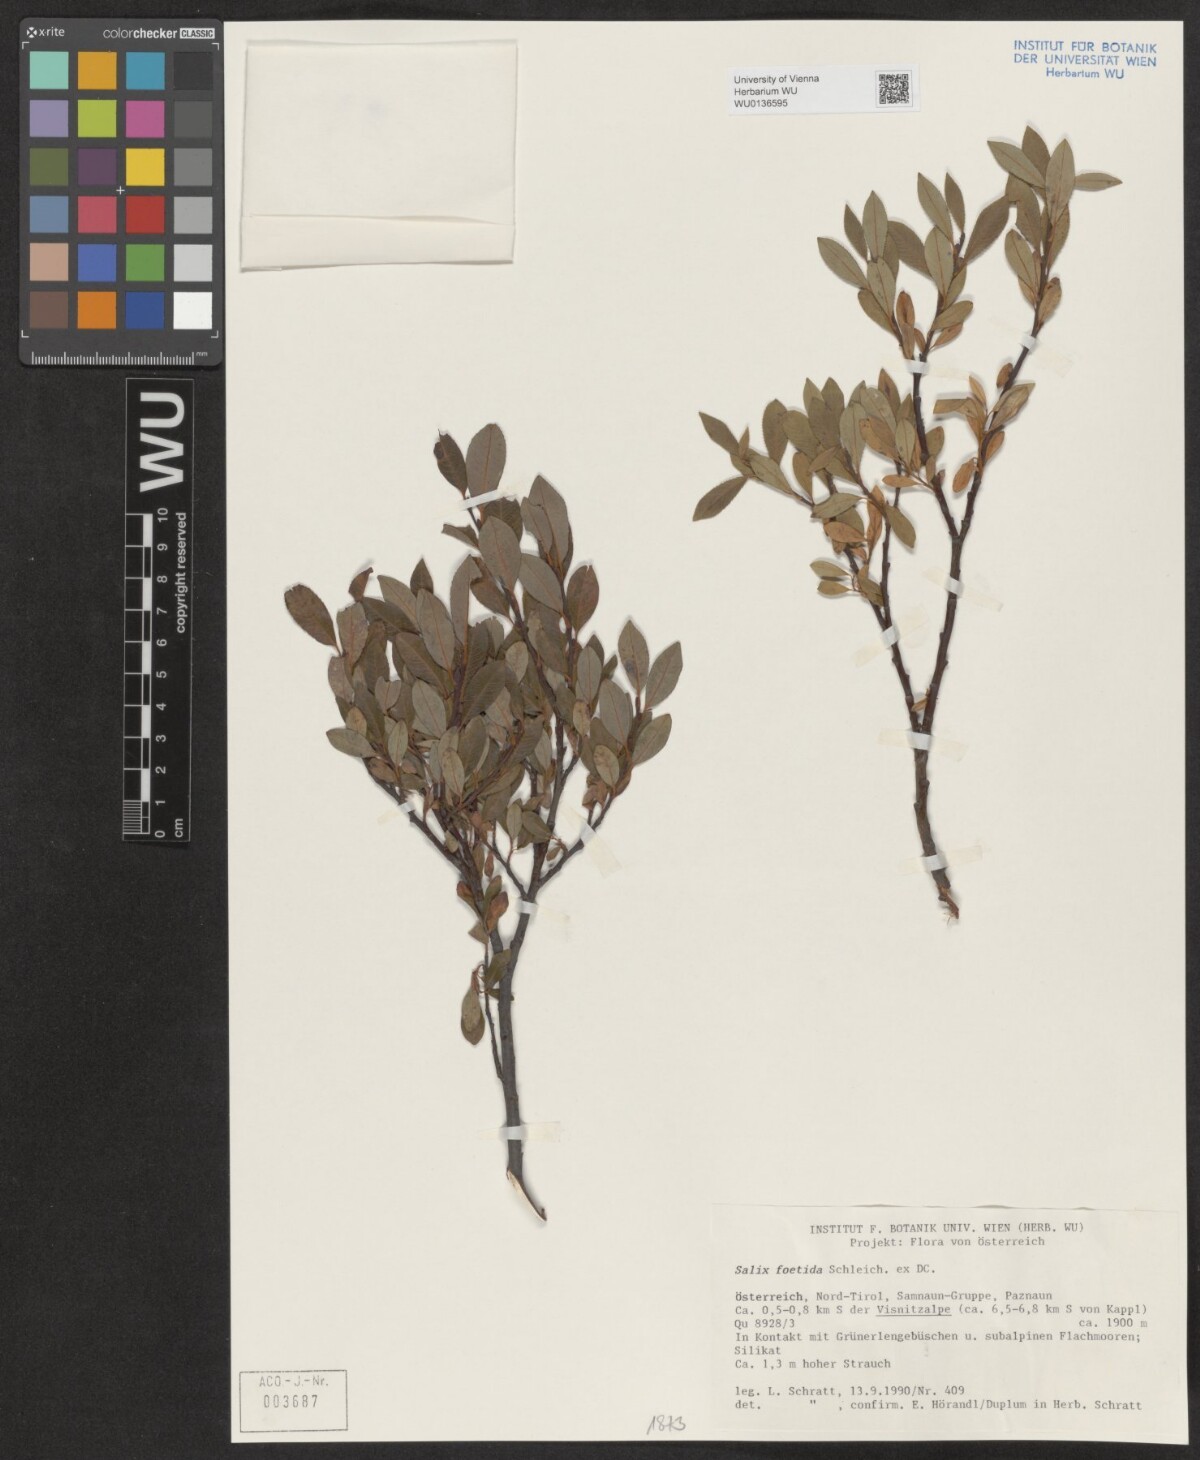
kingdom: Plantae
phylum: Tracheophyta
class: Magnoliopsida
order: Malpighiales
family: Salicaceae
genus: Salix
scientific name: Salix foetida
